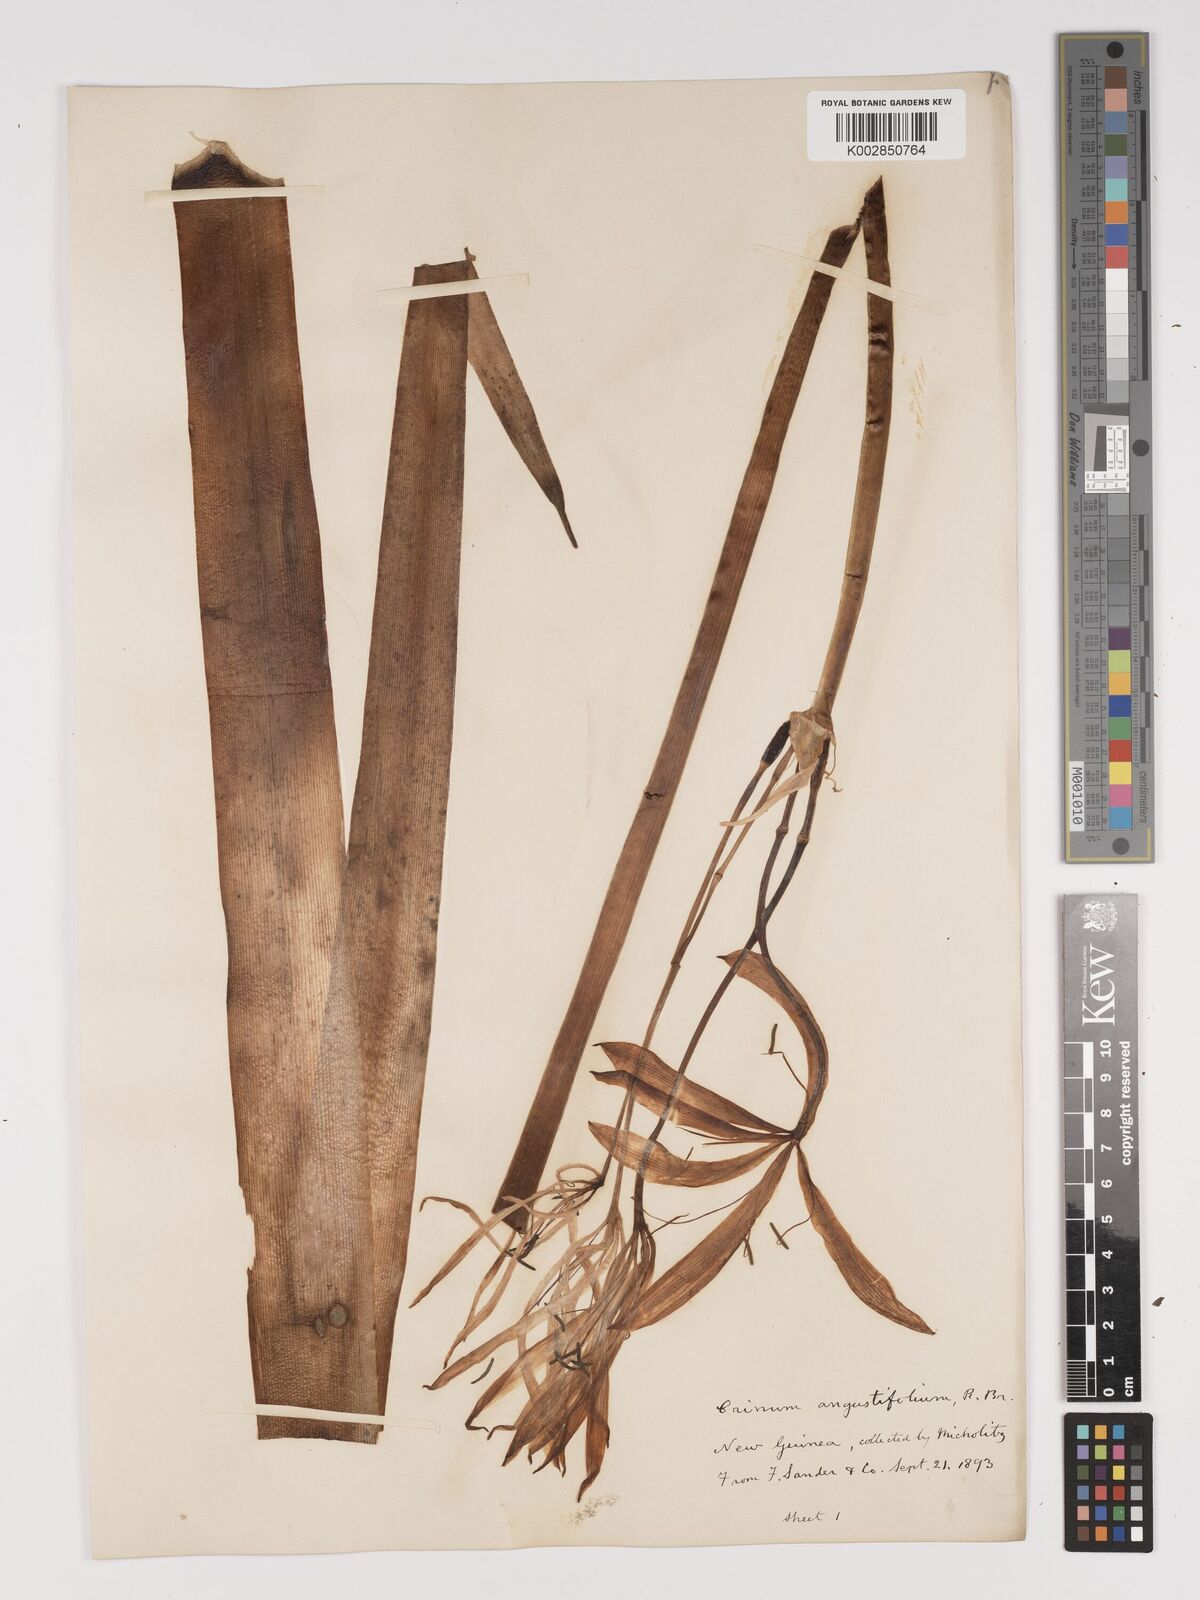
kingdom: Plantae
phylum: Tracheophyta
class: Liliopsida
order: Asparagales
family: Amaryllidaceae
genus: Crinum
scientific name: Crinum arenarium
